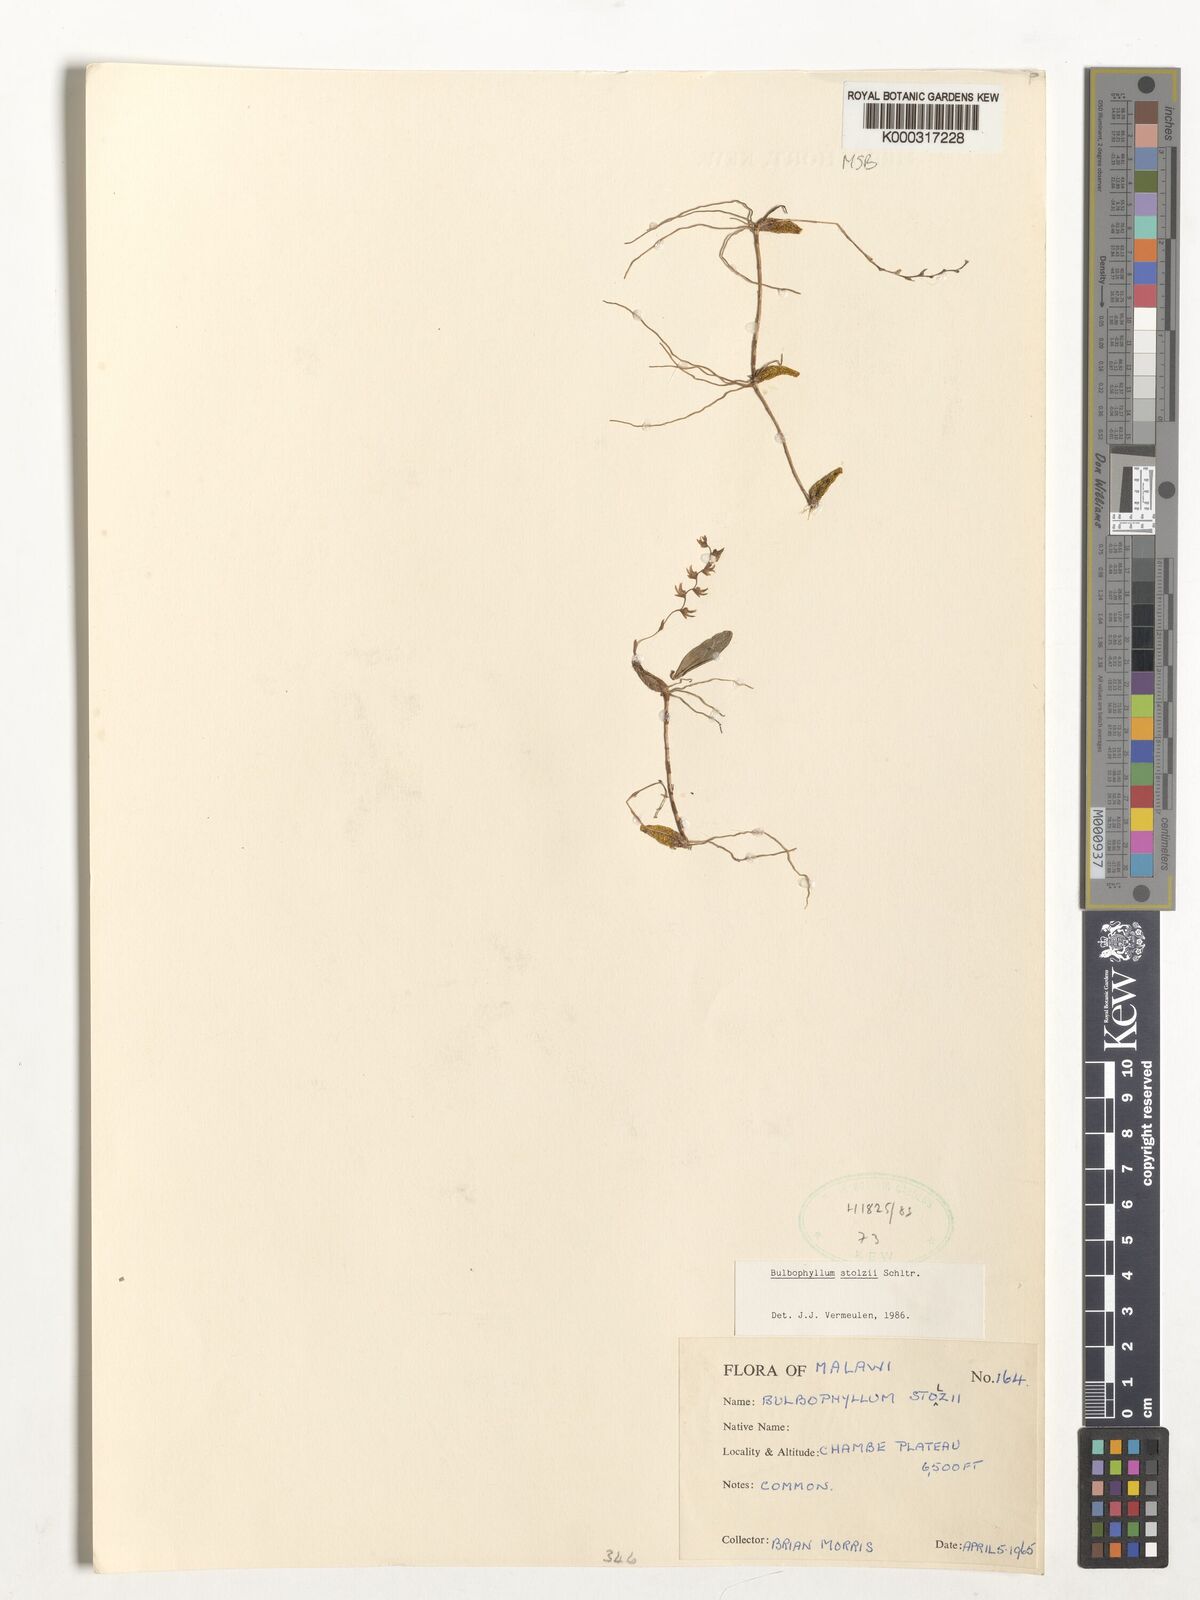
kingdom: Plantae
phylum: Tracheophyta
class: Liliopsida
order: Asparagales
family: Orchidaceae
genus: Bulbophyllum
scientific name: Bulbophyllum stolzii
